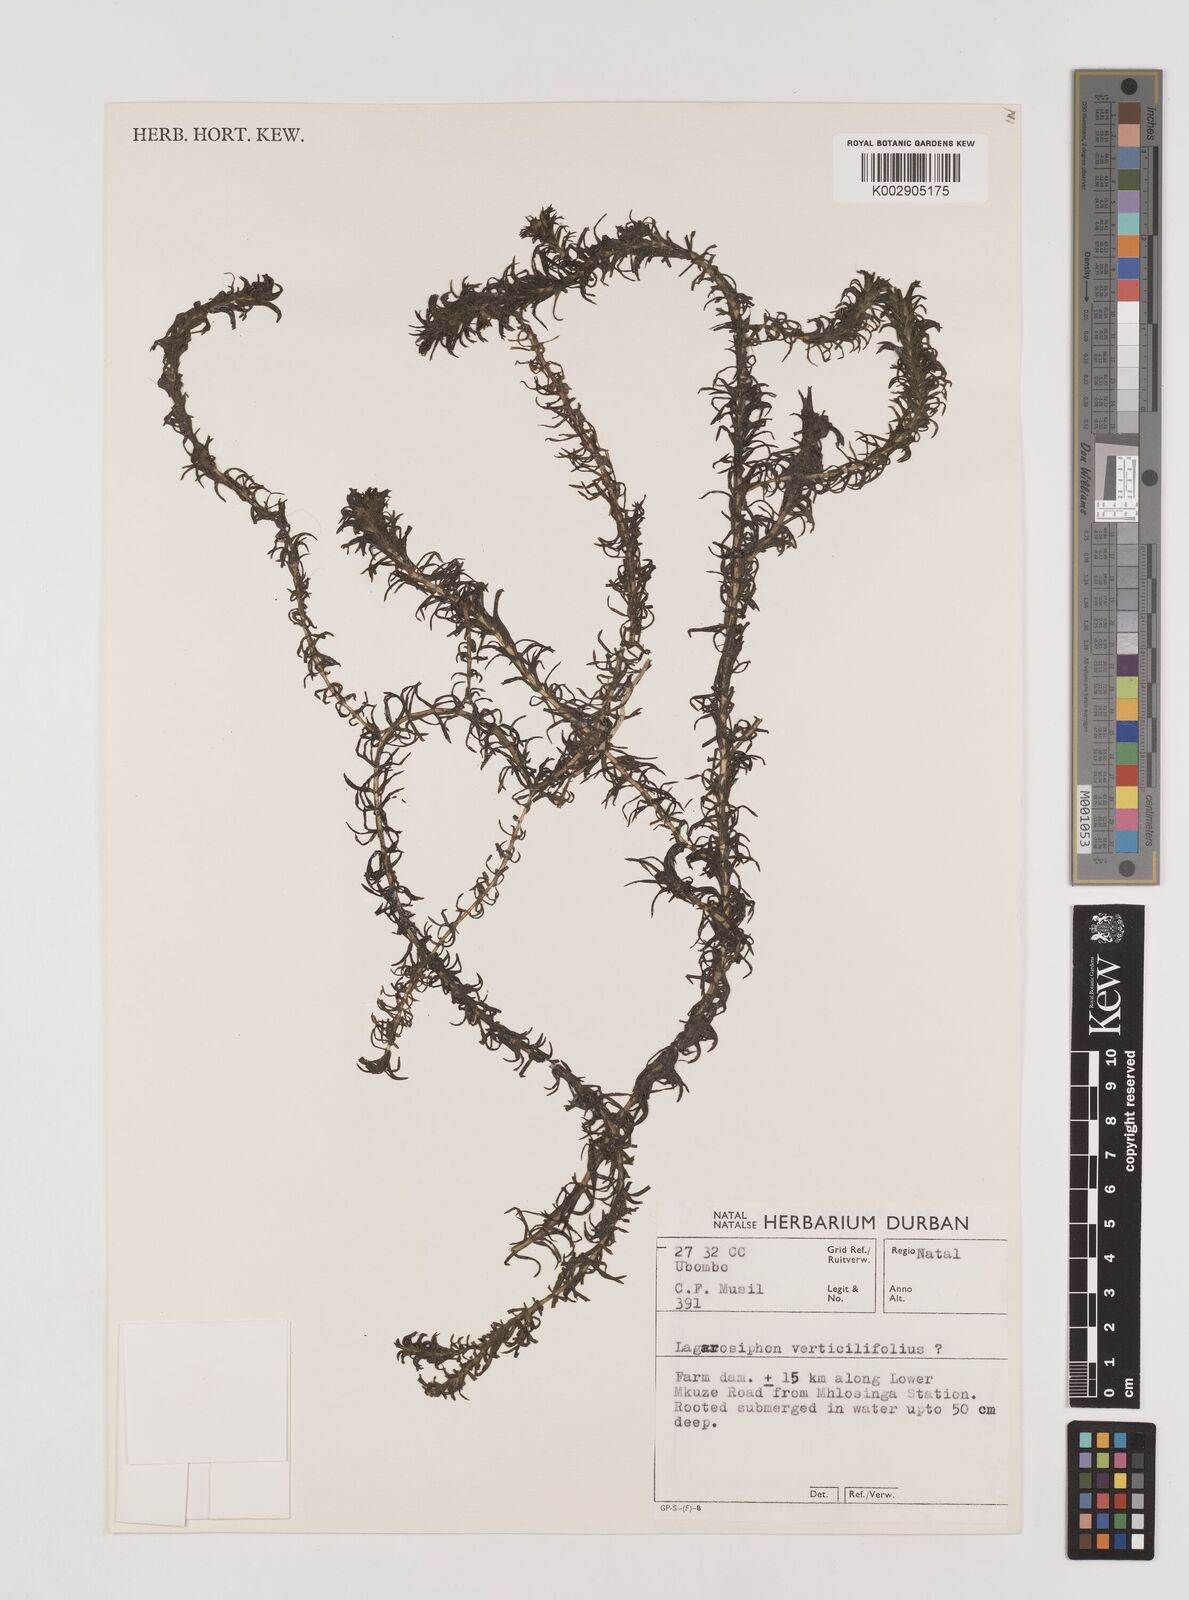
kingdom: Plantae
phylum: Tracheophyta
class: Liliopsida
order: Alismatales
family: Hydrocharitaceae
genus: Lagarosiphon
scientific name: Lagarosiphon verticillifolius
